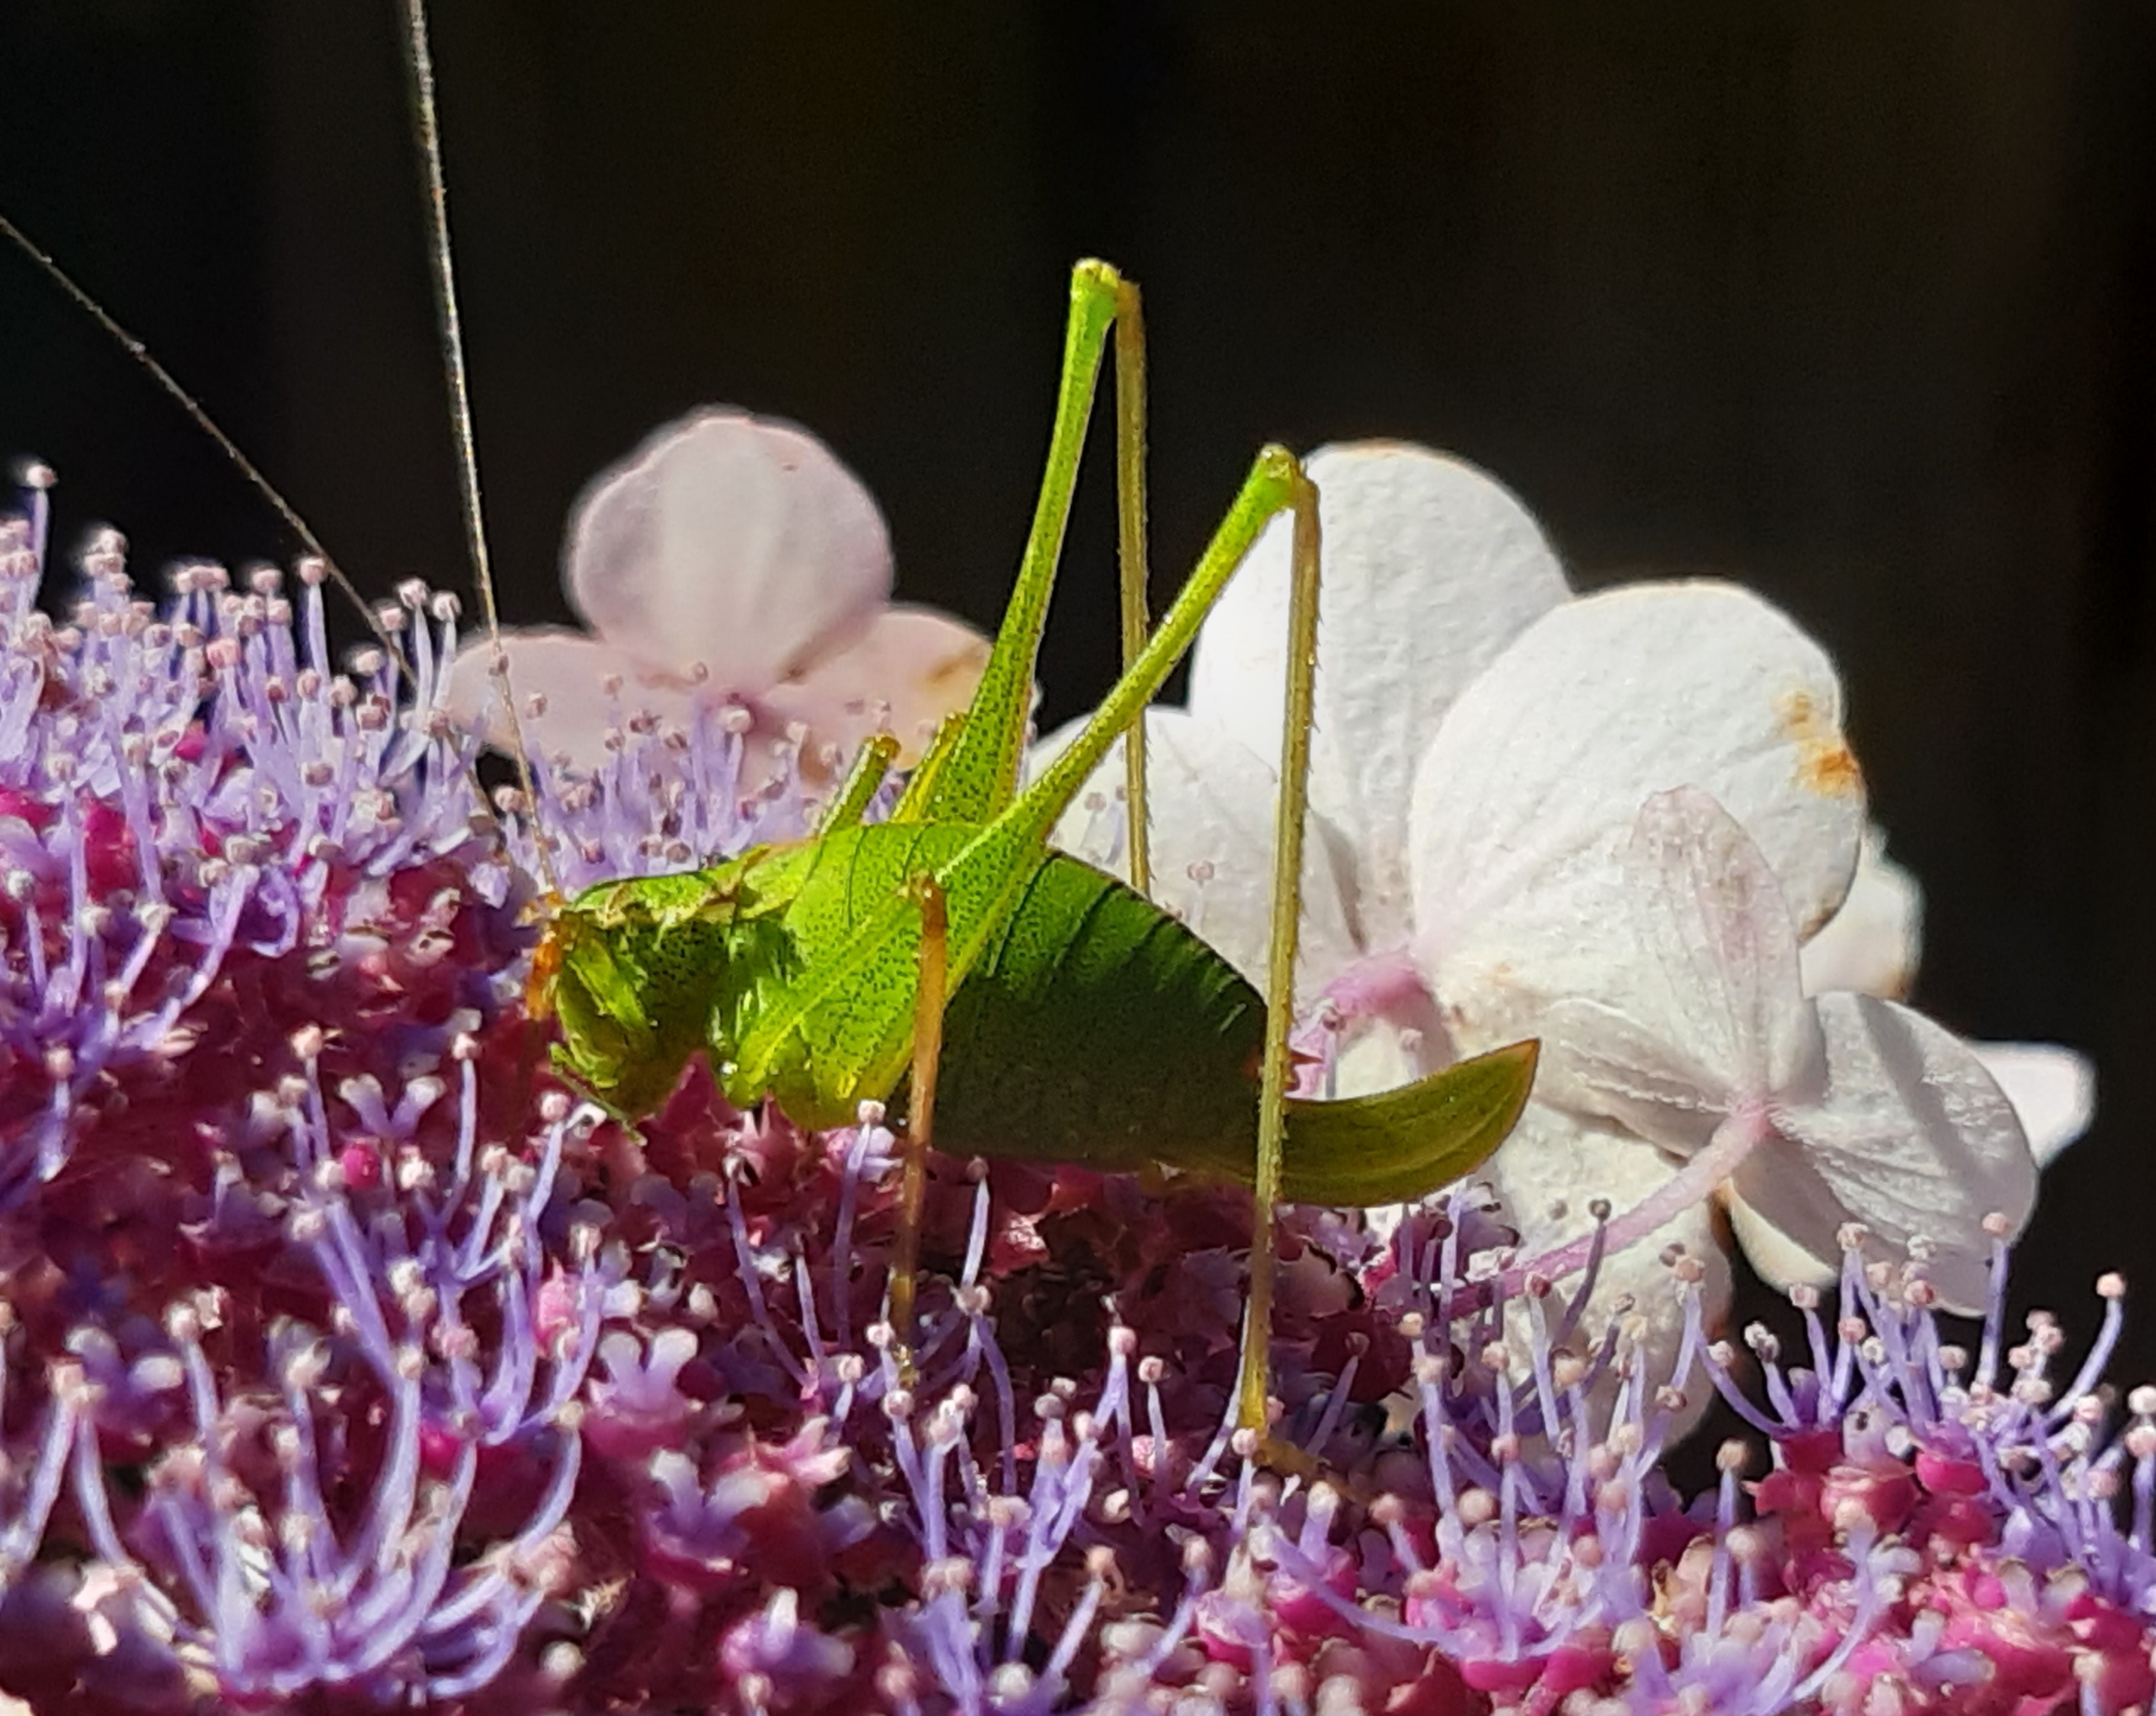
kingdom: Animalia
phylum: Arthropoda
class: Insecta
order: Orthoptera
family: Tettigoniidae
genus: Leptophyes
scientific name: Leptophyes punctatissima
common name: Krumknivgræshoppe
